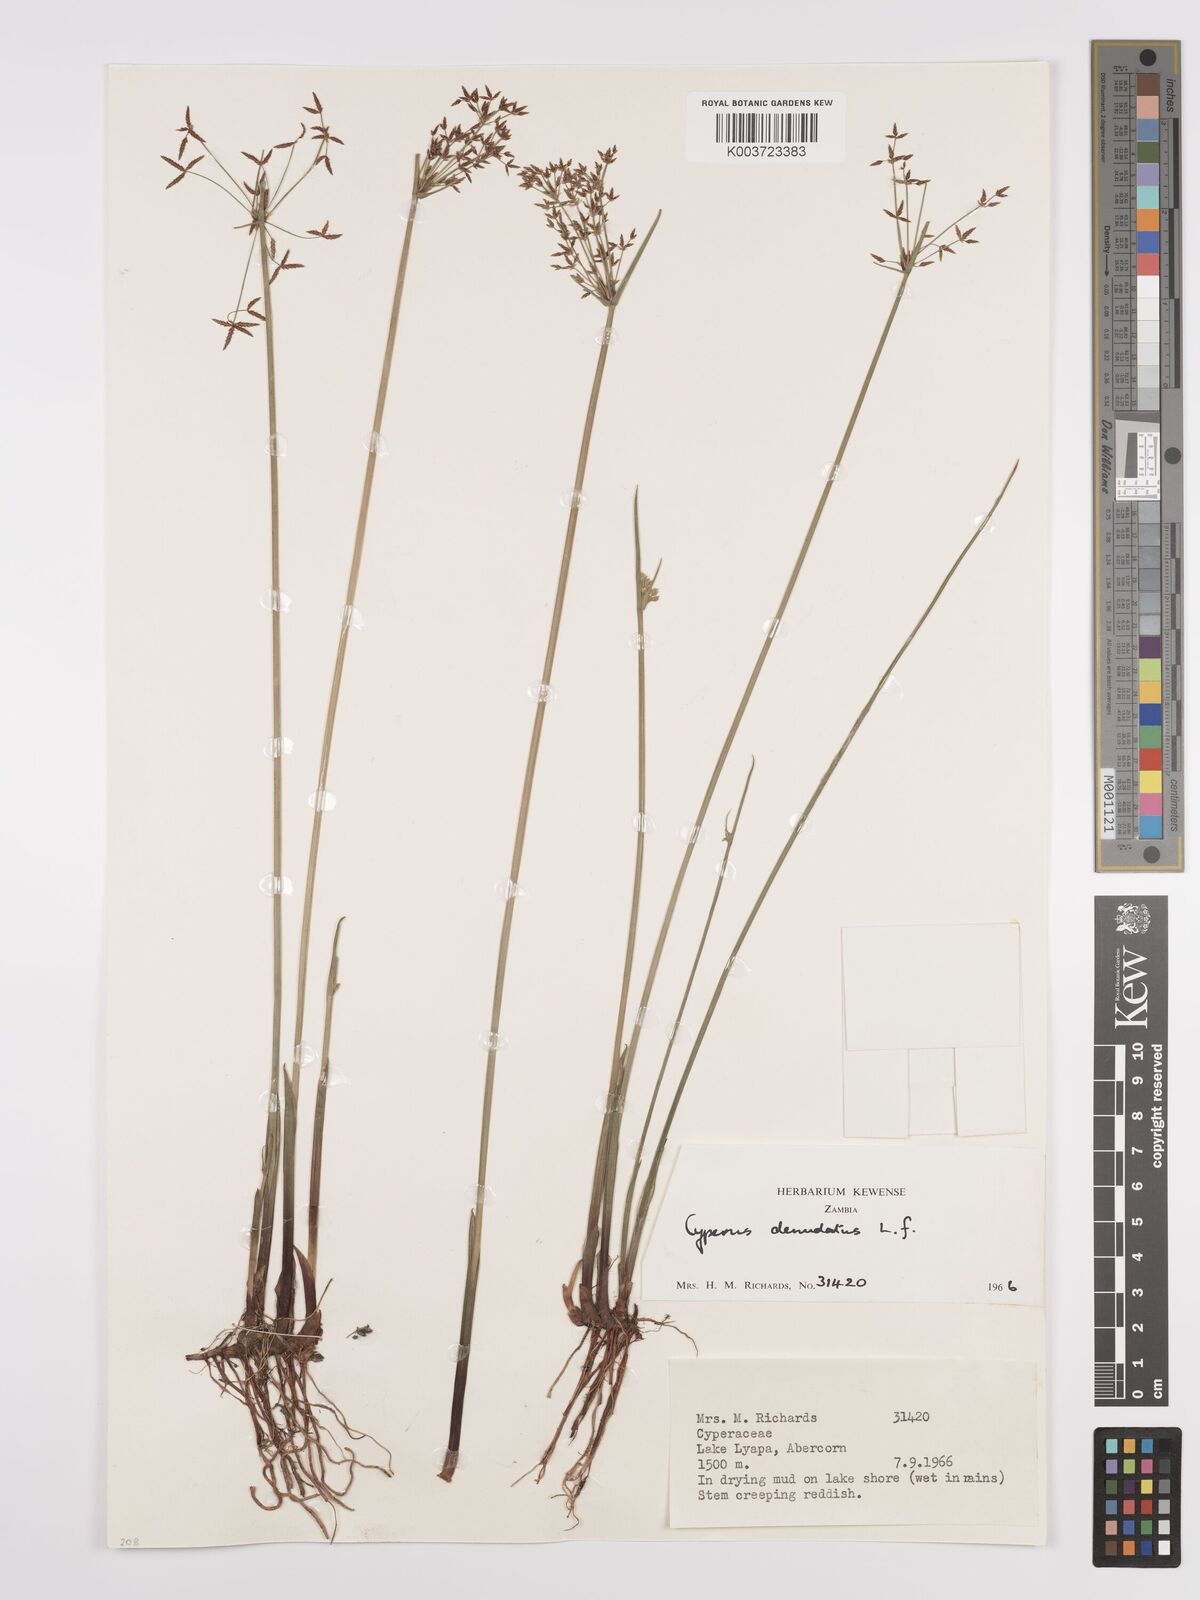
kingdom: Plantae
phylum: Tracheophyta
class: Liliopsida
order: Poales
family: Cyperaceae
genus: Cyperus
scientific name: Cyperus denudatus
